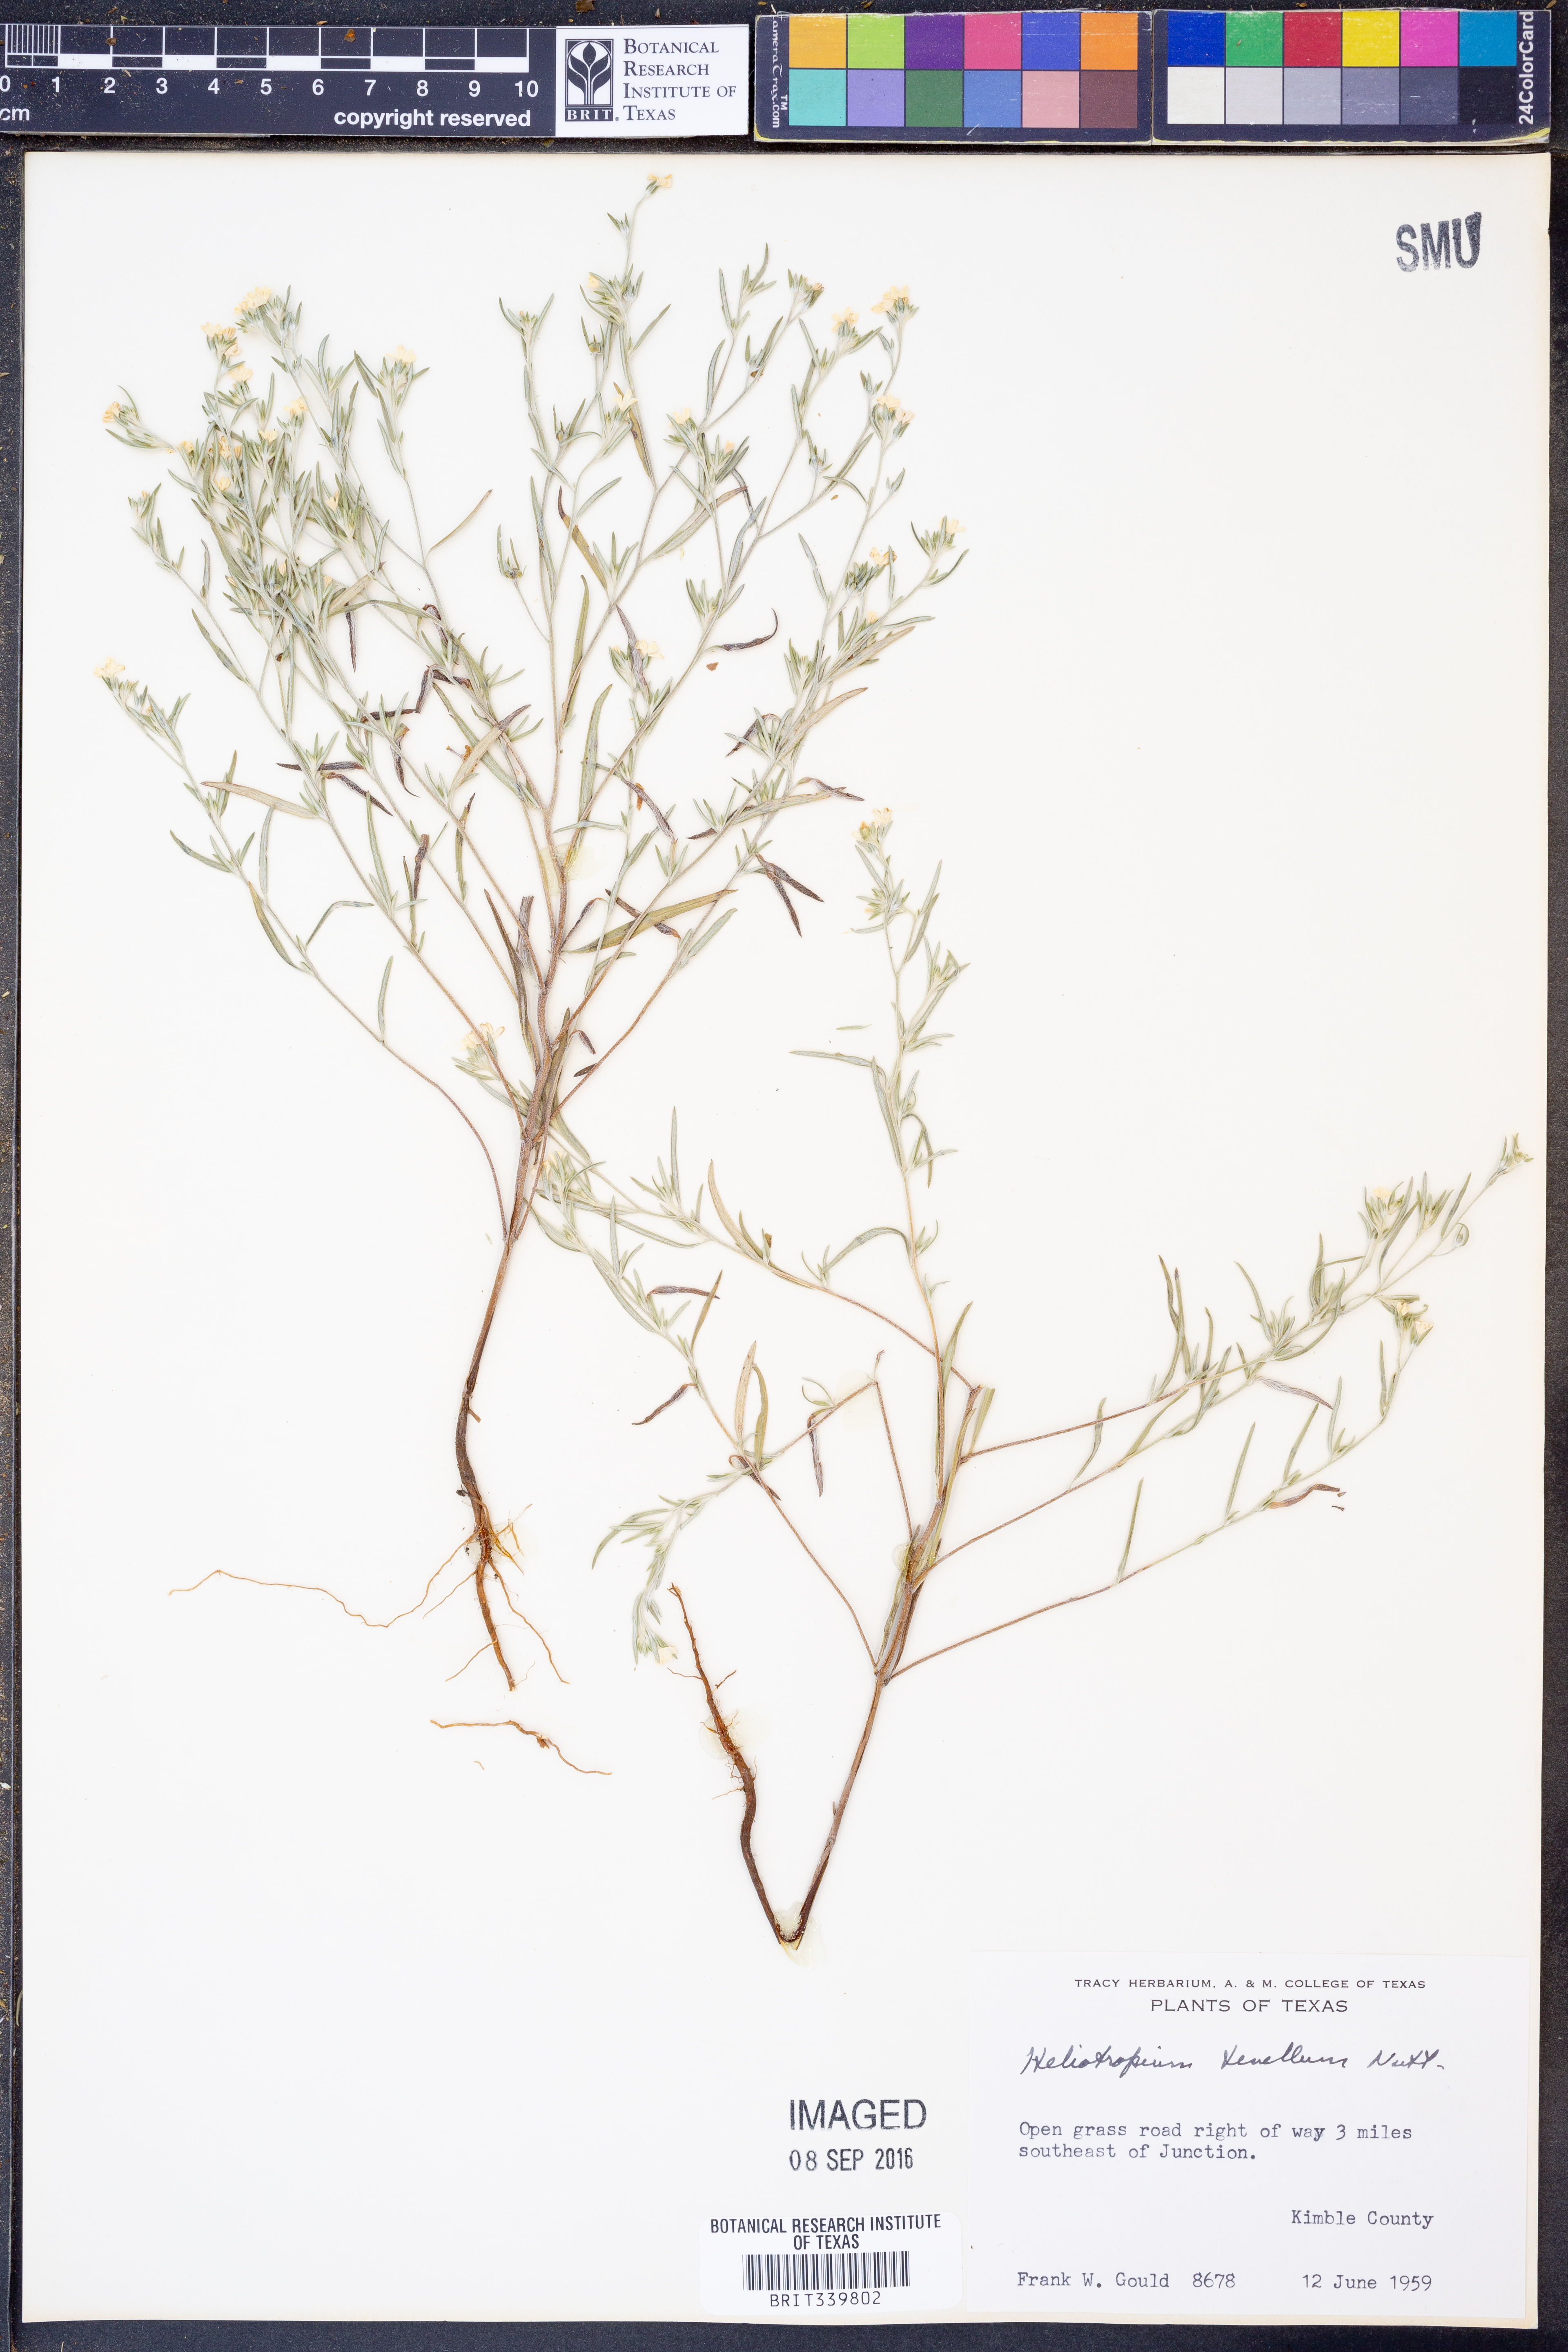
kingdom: Plantae
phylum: Tracheophyta
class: Magnoliopsida
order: Boraginales
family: Heliotropiaceae
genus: Euploca
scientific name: Euploca tenella
